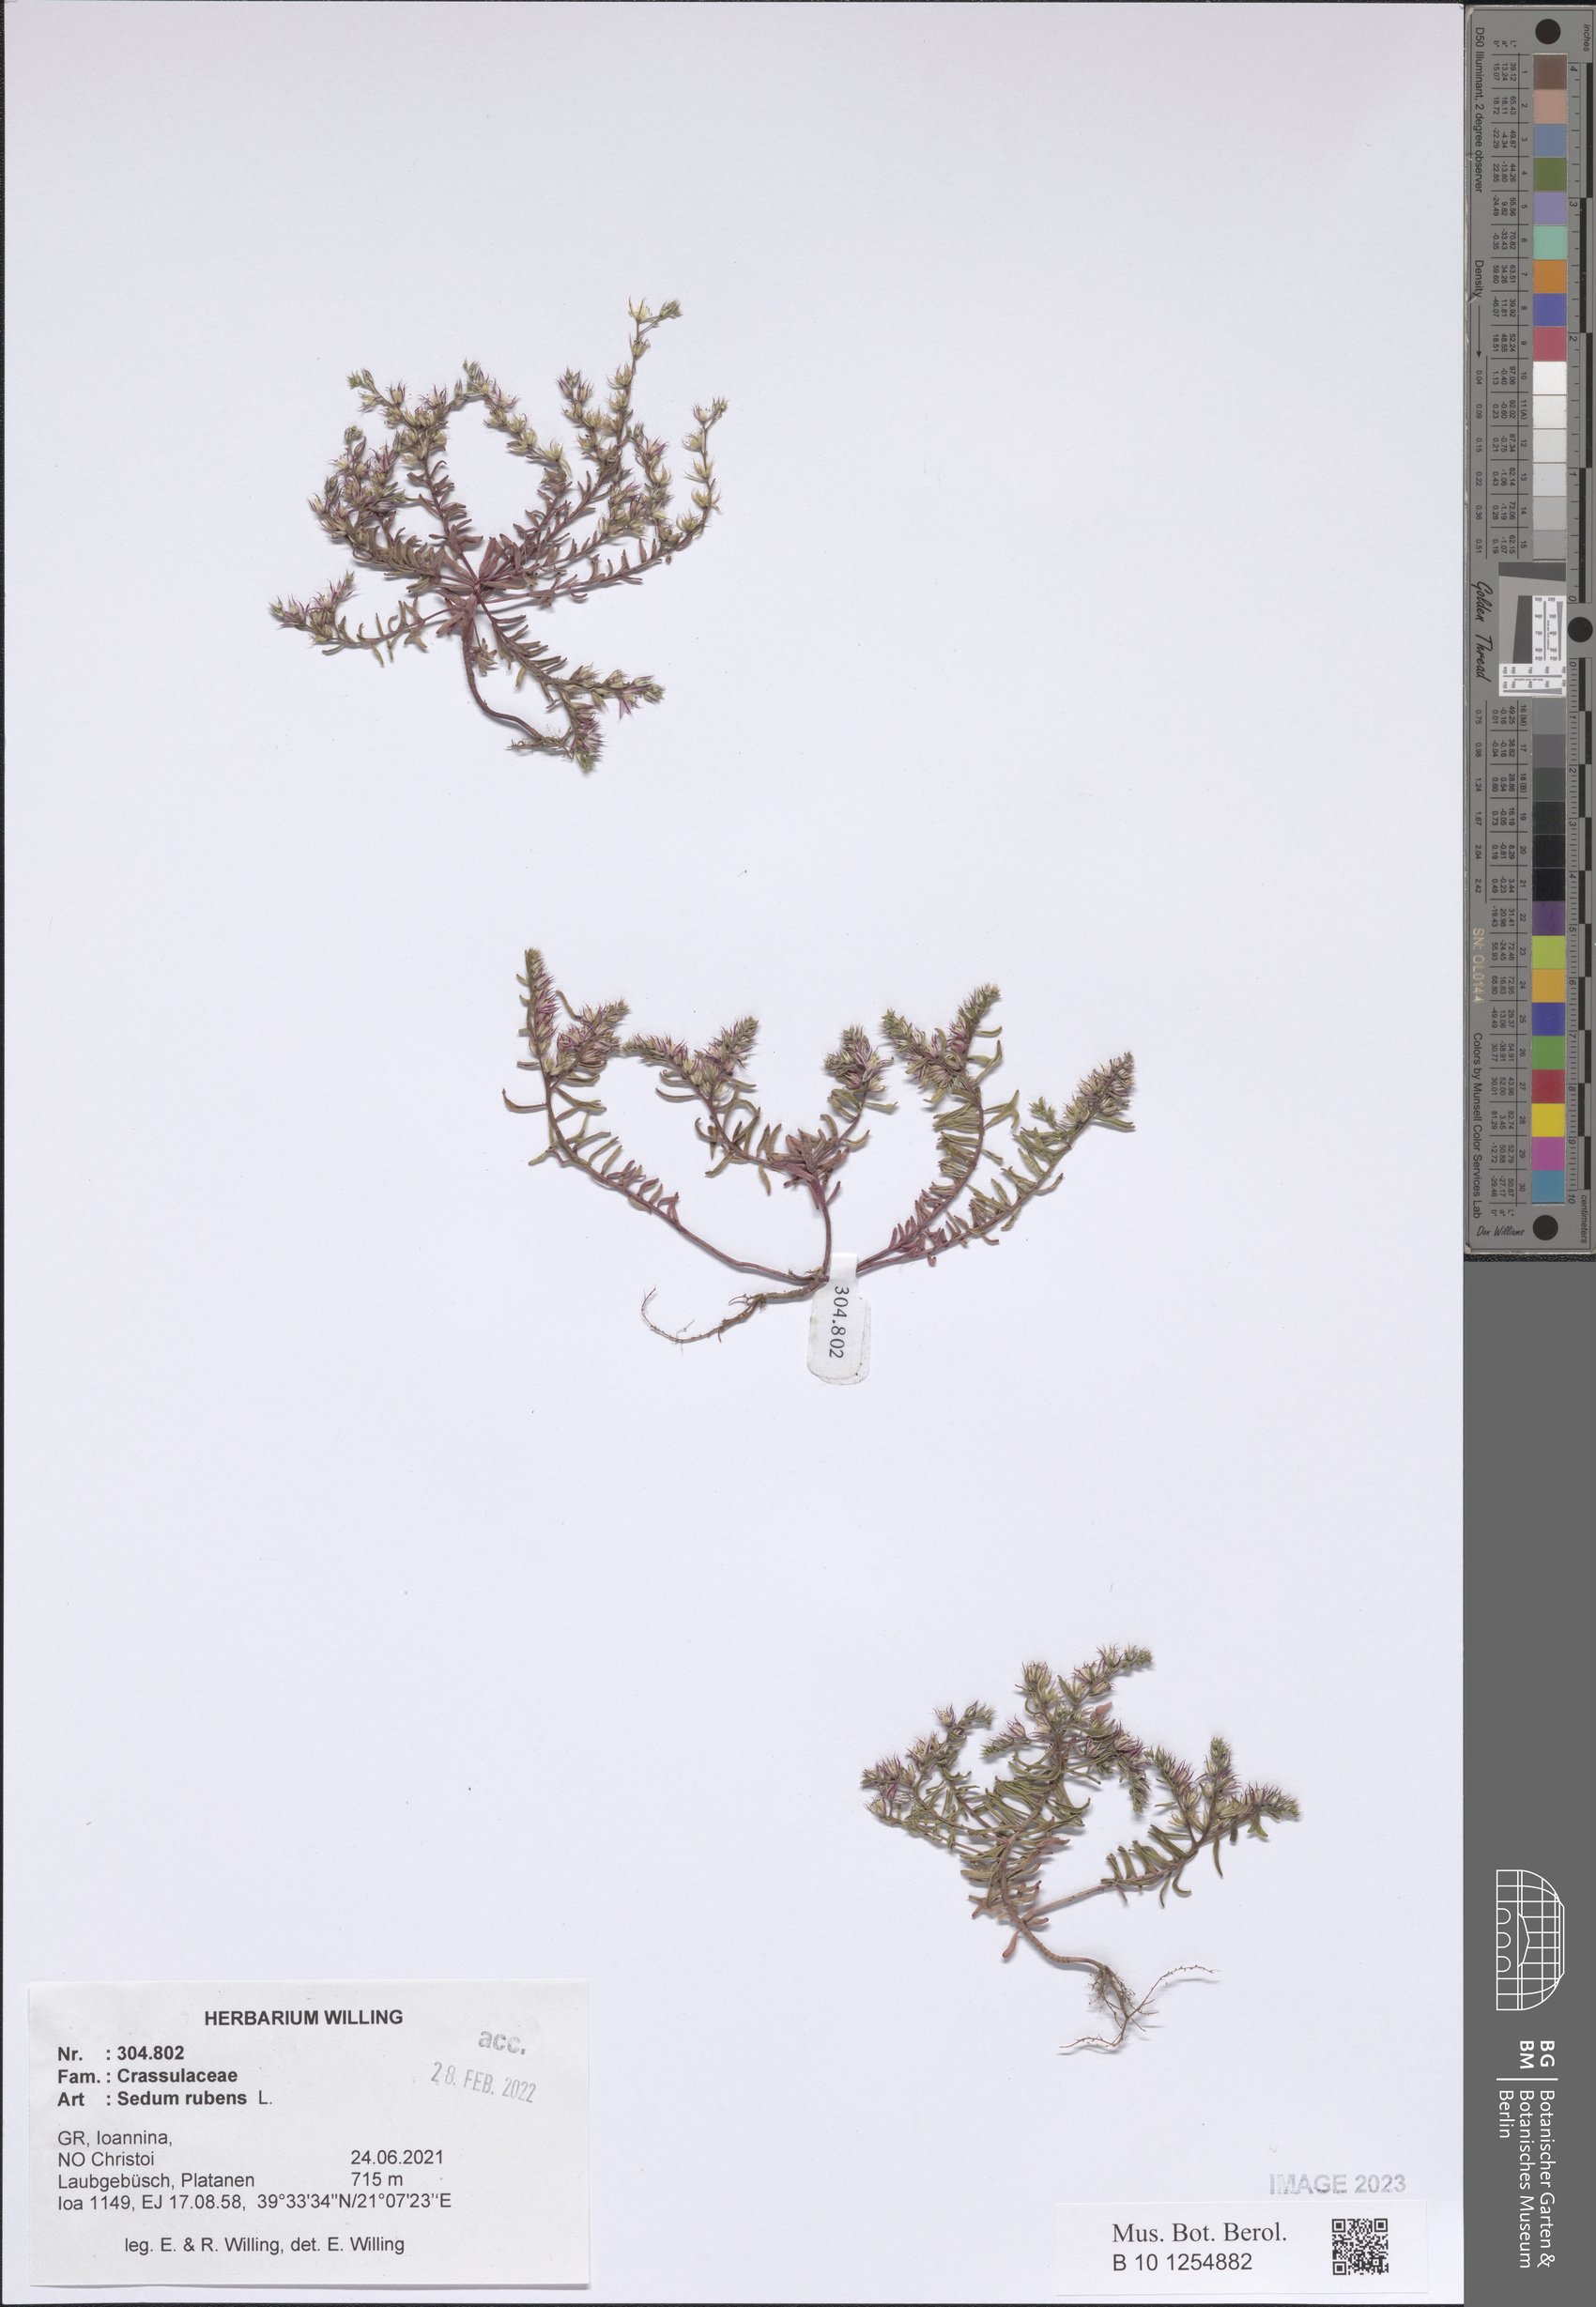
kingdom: Plantae
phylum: Tracheophyta
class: Magnoliopsida
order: Saxifragales
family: Crassulaceae
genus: Sedum
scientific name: Sedum rubens
